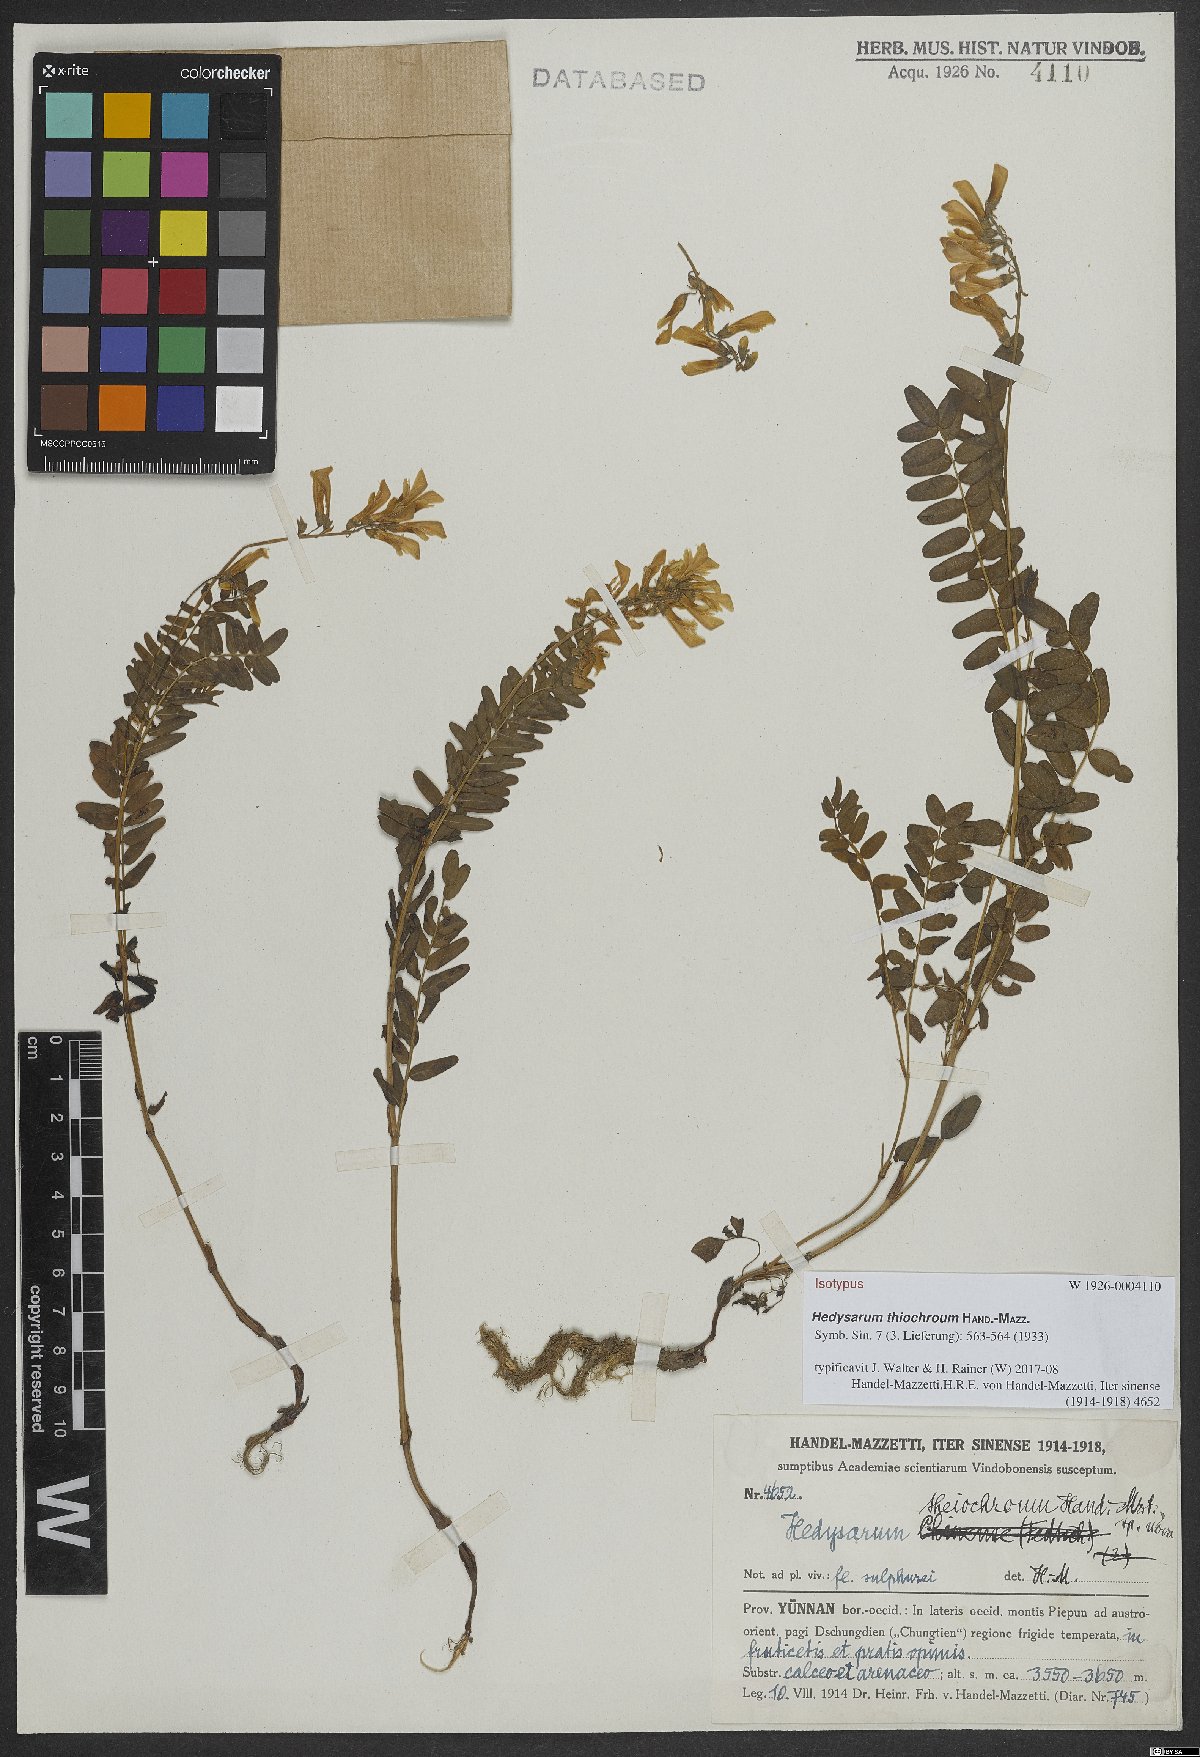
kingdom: Plantae
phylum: Tracheophyta
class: Magnoliopsida
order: Fabales
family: Fabaceae
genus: Hedysarum
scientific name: Hedysarum thiochroum
